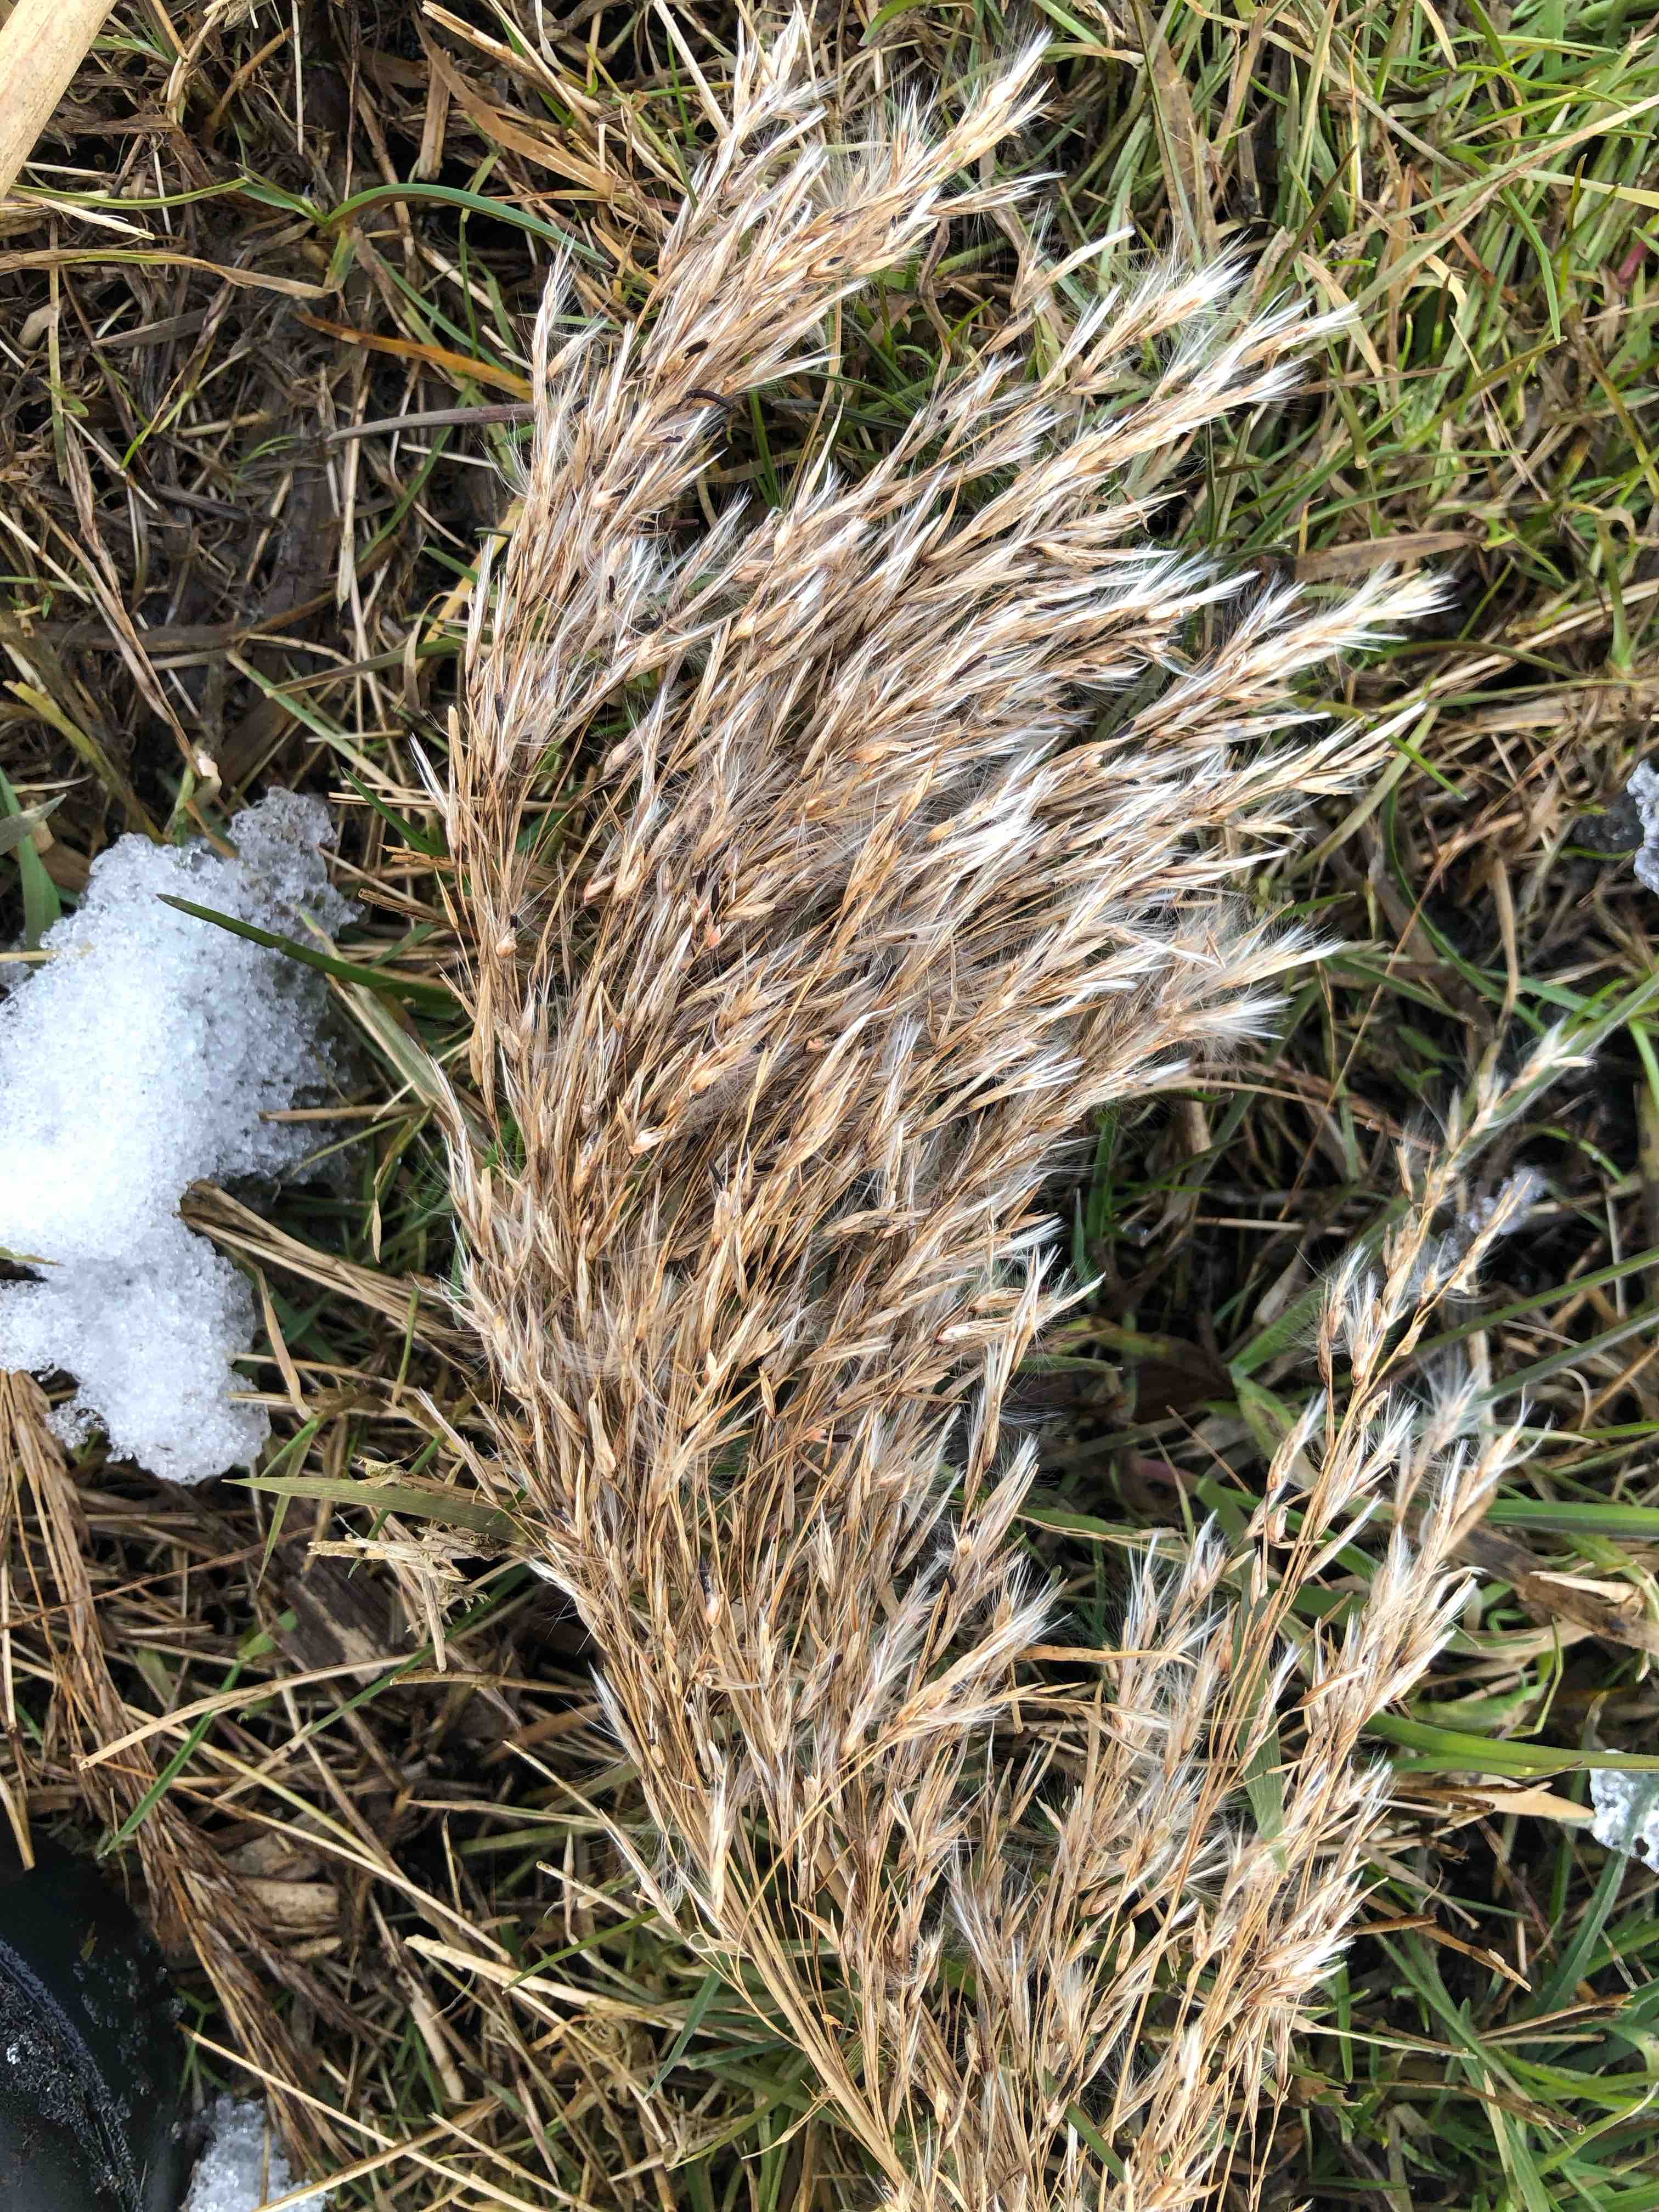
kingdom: Fungi
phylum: Ascomycota
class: Sordariomycetes
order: Hypocreales
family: Clavicipitaceae
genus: Claviceps
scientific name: Claviceps arundinis
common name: tagrør-meldrøjer
